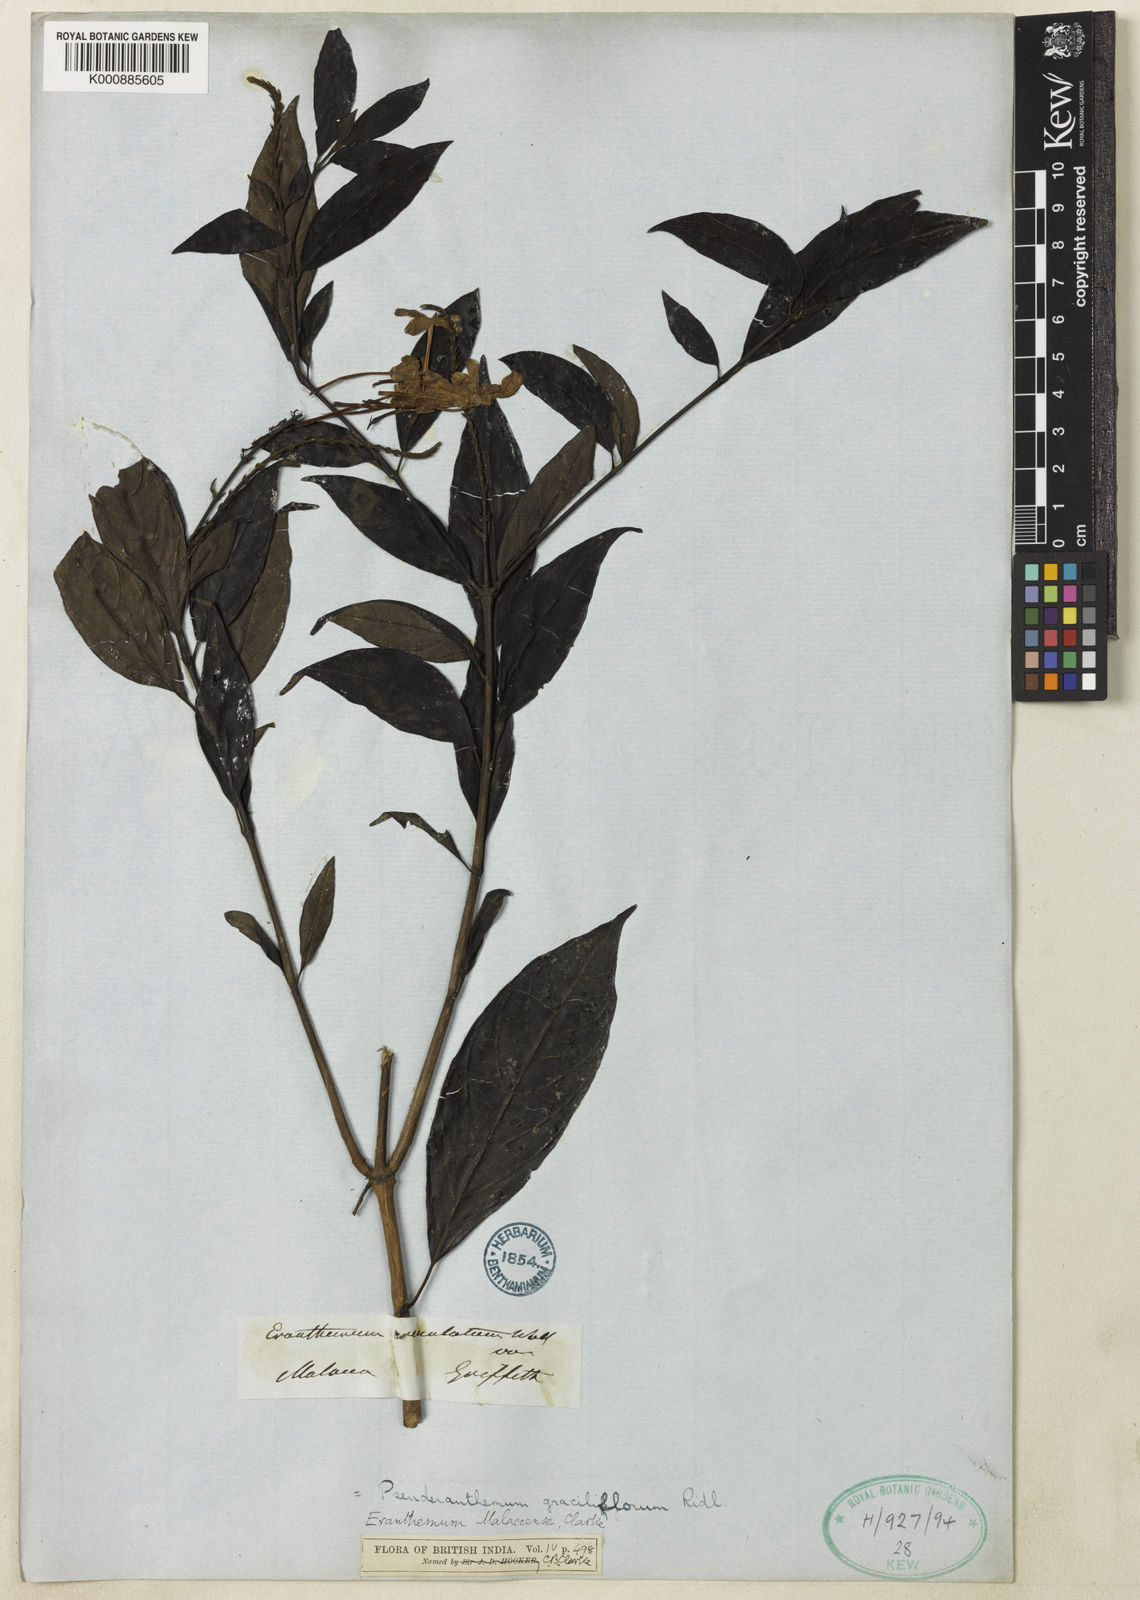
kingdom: Plantae
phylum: Tracheophyta
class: Magnoliopsida
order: Lamiales
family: Acanthaceae
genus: Pseuderanthemum
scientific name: Pseuderanthemum graciliflorum
